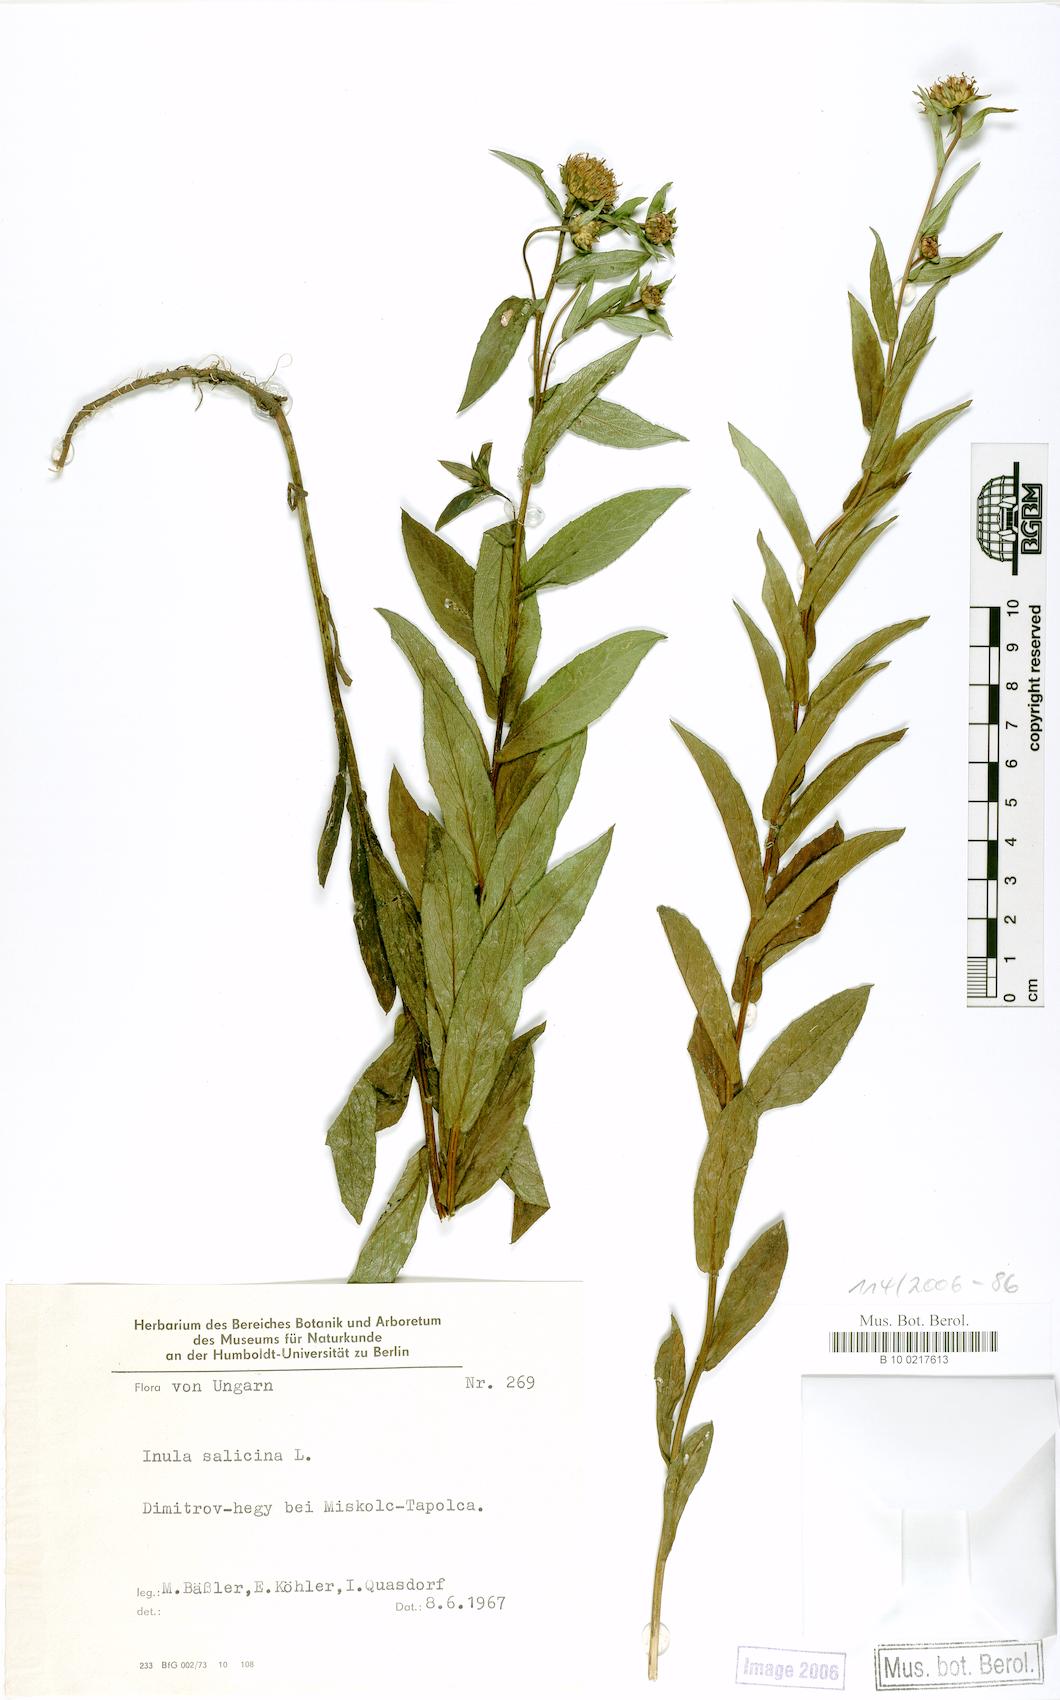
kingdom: Plantae
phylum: Tracheophyta
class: Magnoliopsida
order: Asterales
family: Asteraceae
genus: Pentanema
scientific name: Pentanema salicinum
